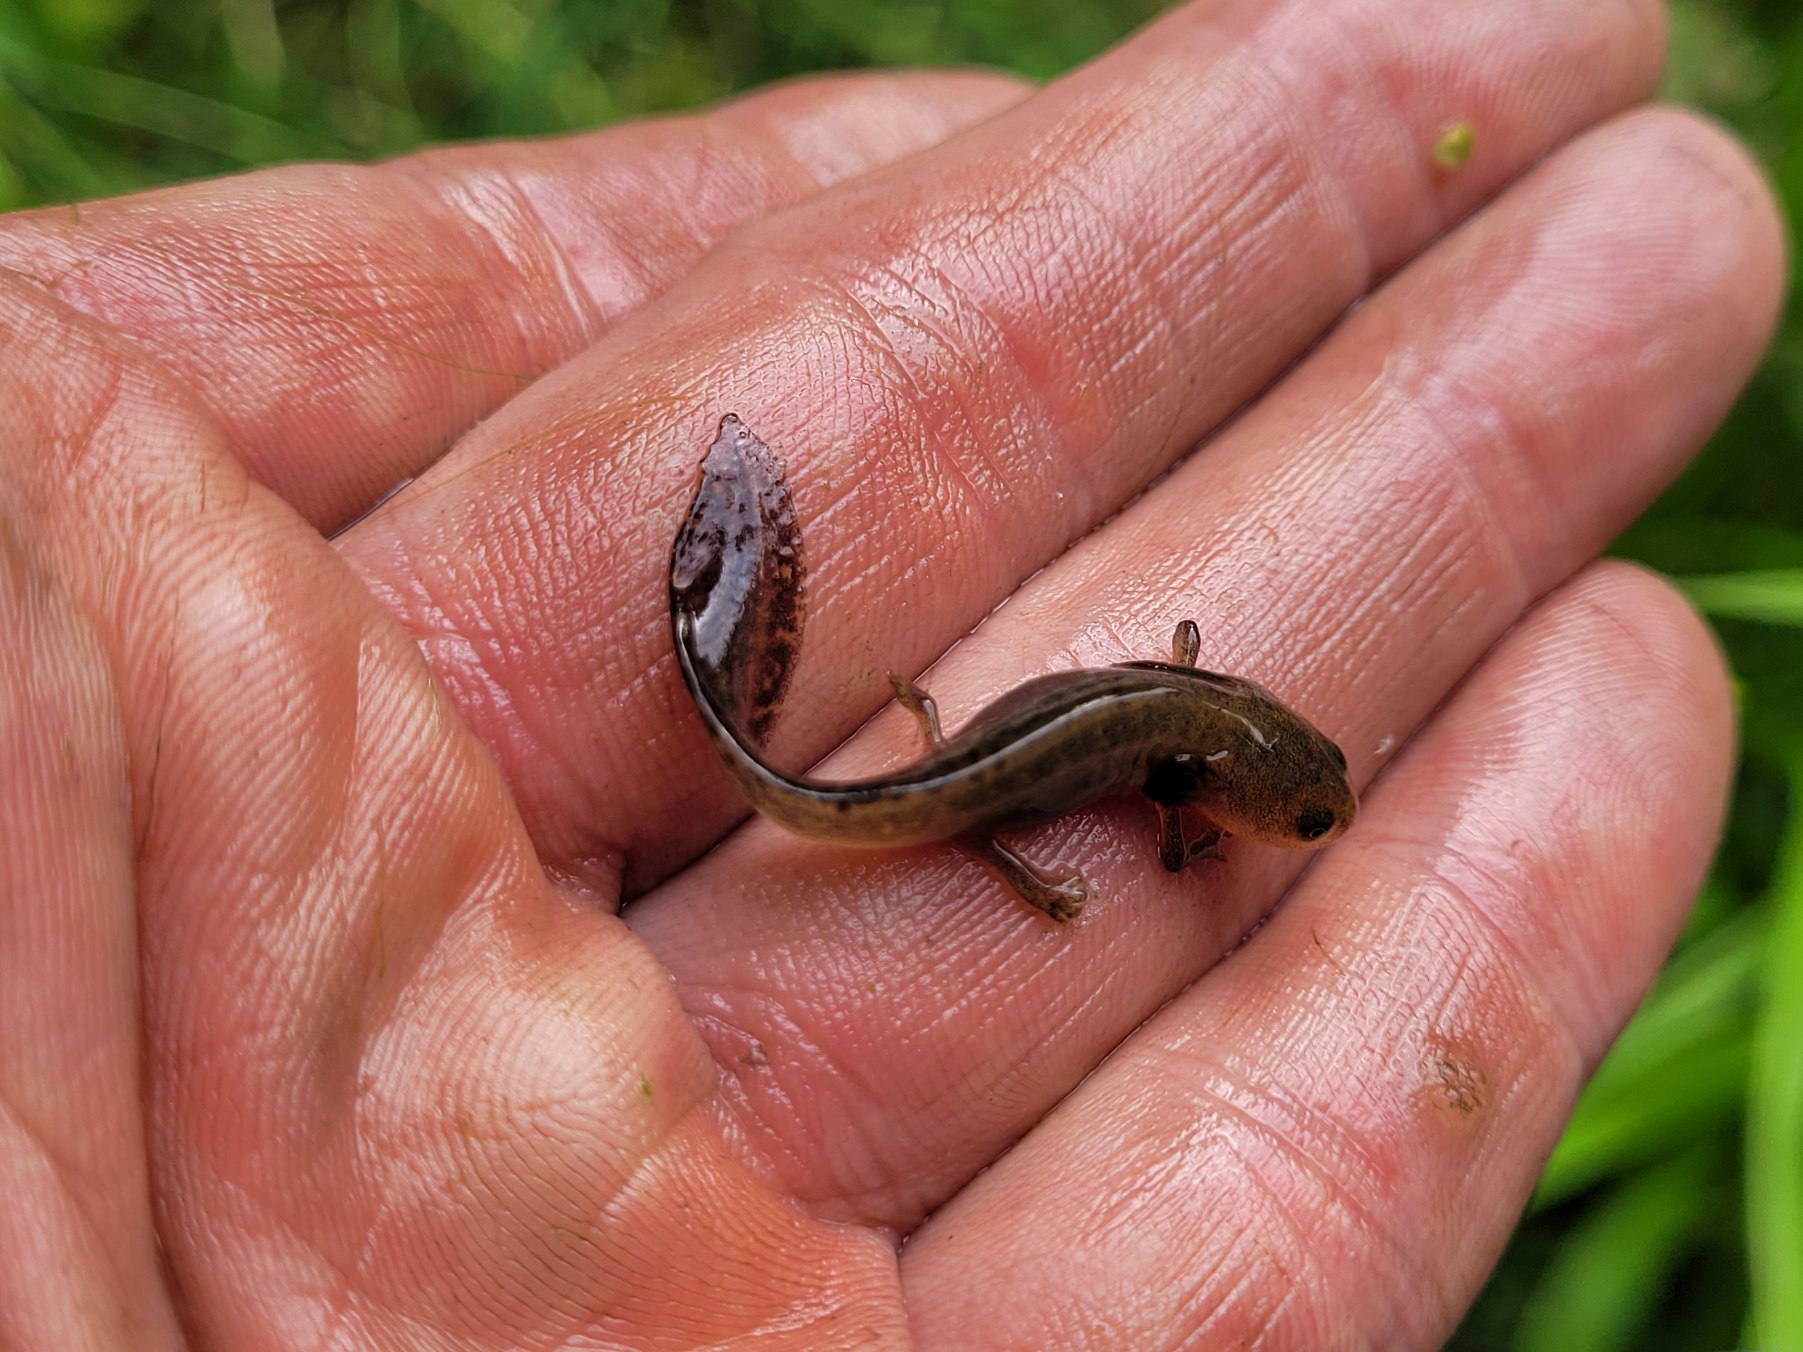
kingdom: Animalia
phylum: Chordata
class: Amphibia
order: Caudata
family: Salamandridae
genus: Ichthyosaura
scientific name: Ichthyosaura alpestris
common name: Bjergsalamander
